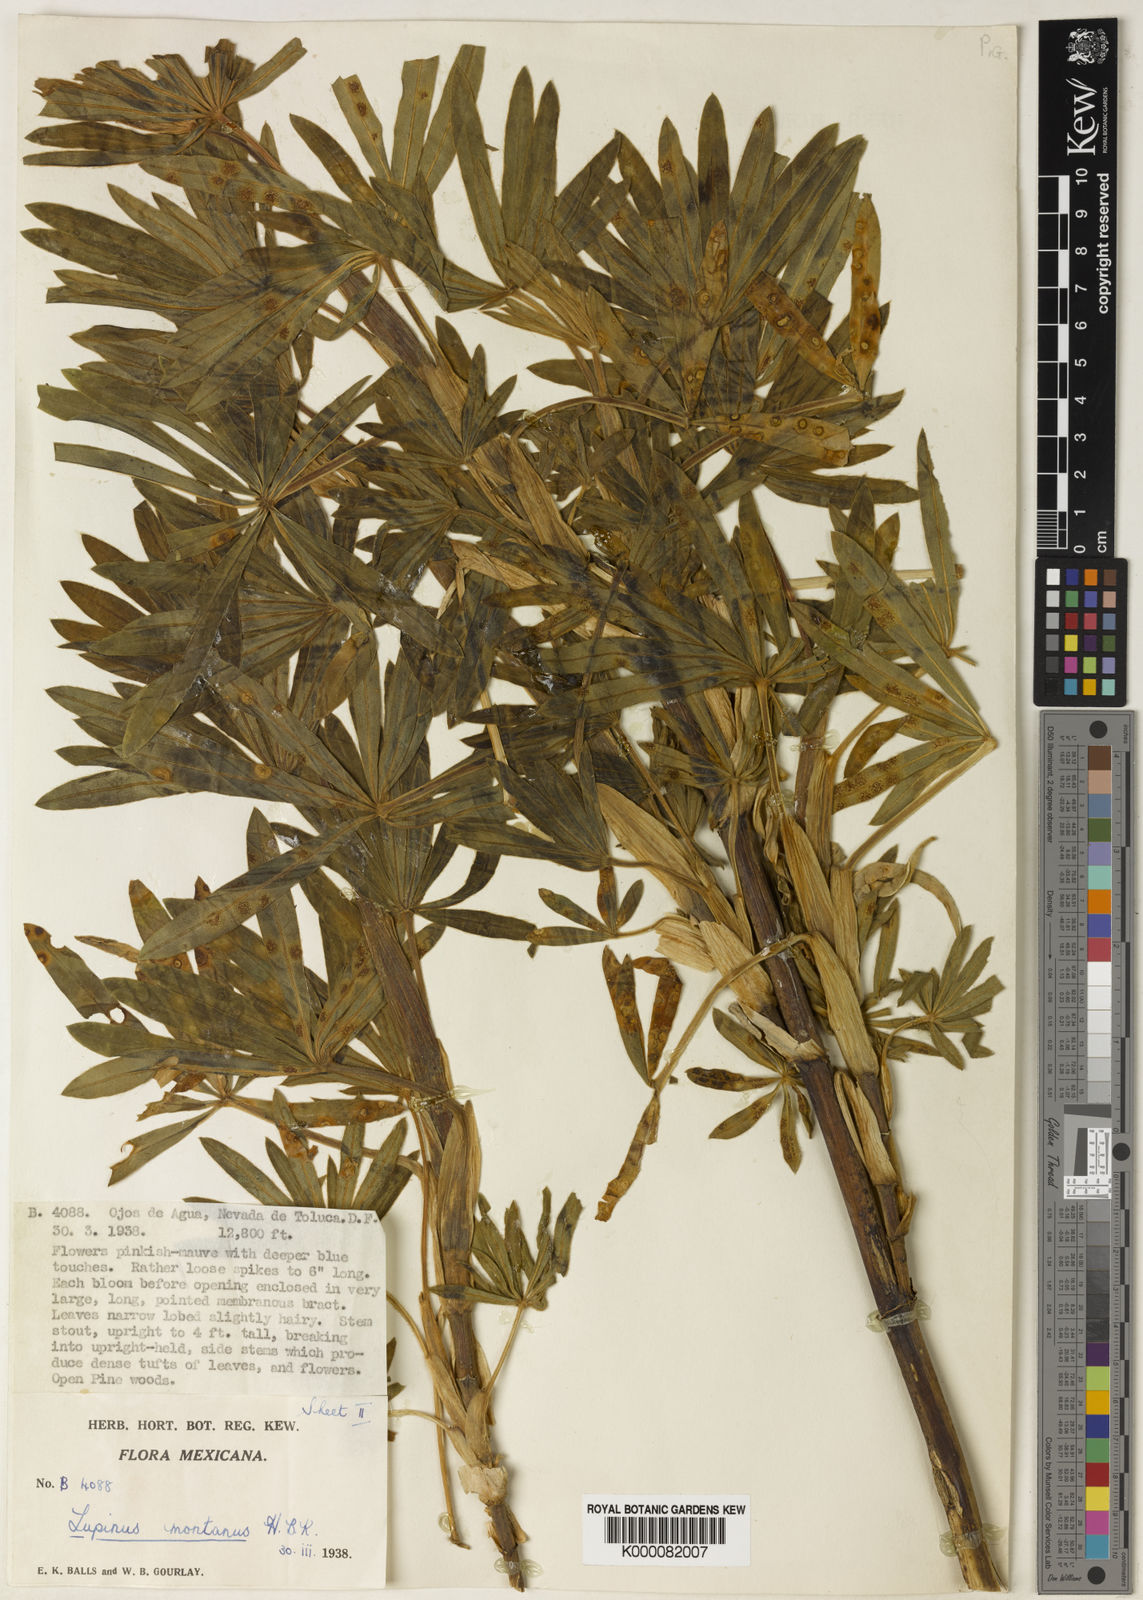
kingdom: Plantae
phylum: Tracheophyta
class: Magnoliopsida
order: Fabales
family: Fabaceae
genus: Lupinus
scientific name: Lupinus montanus
